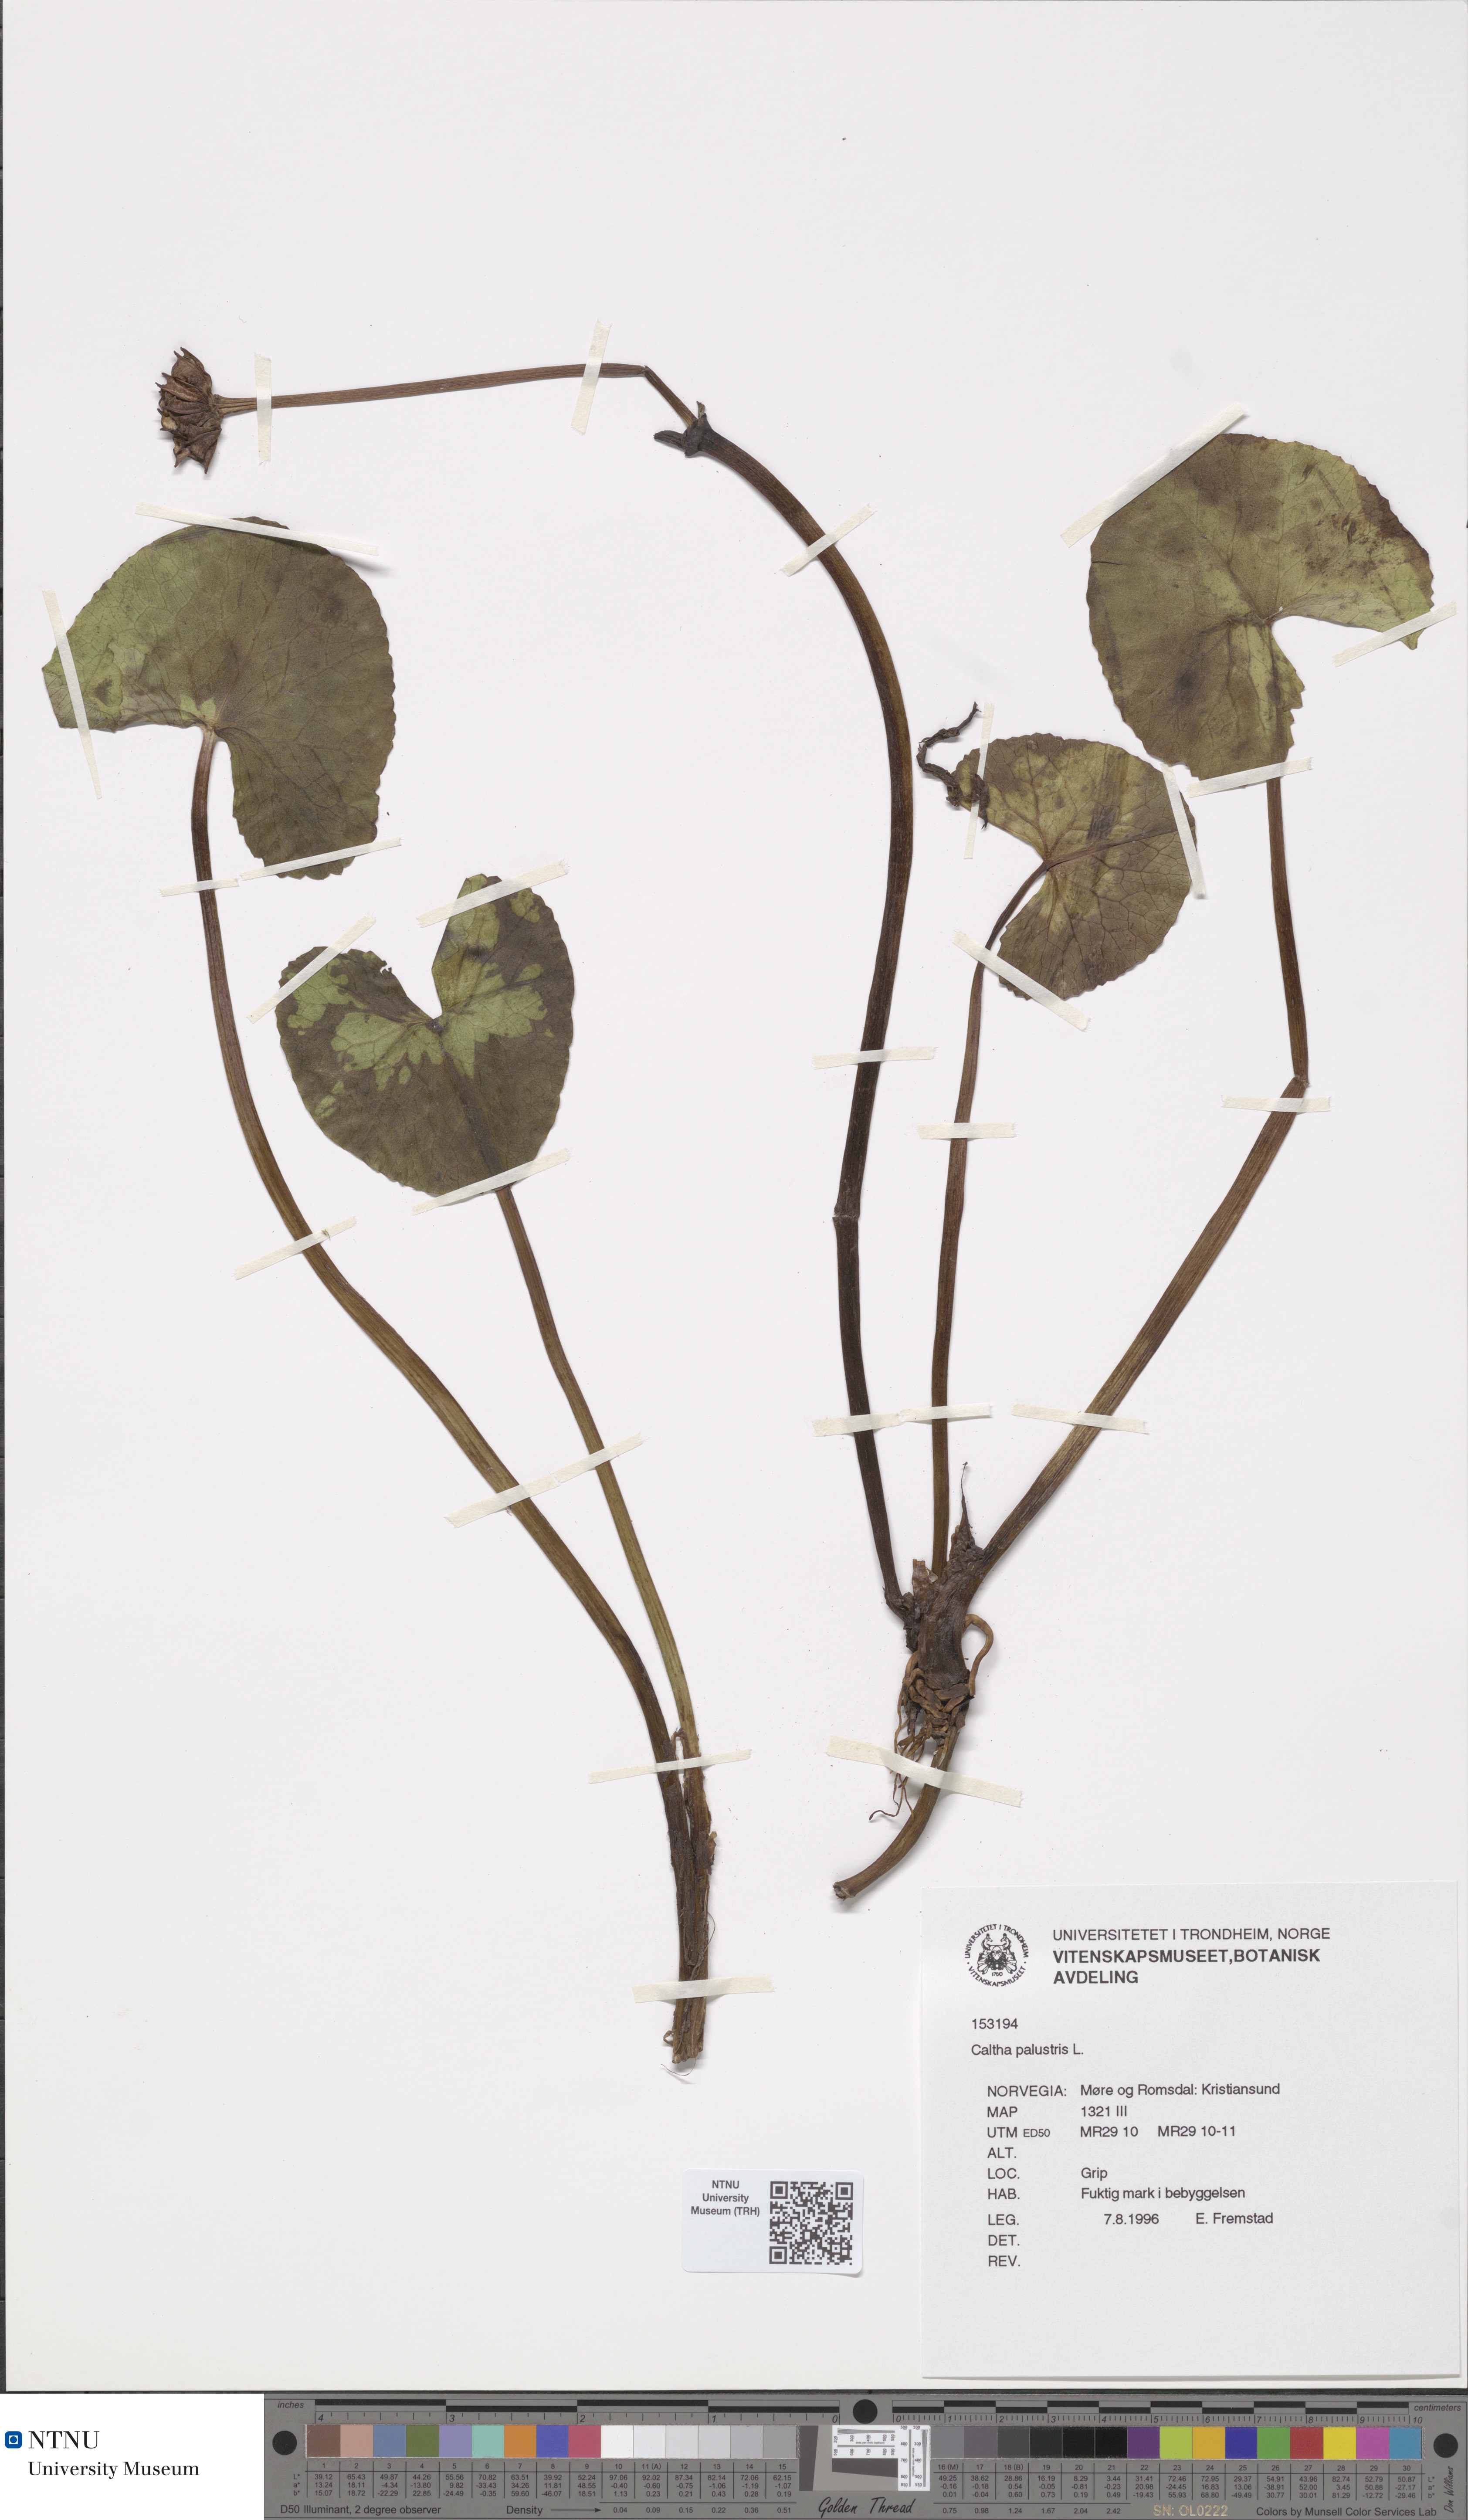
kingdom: Plantae
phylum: Tracheophyta
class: Magnoliopsida
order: Ranunculales
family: Ranunculaceae
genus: Caltha
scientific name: Caltha palustris
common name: Marsh marigold
